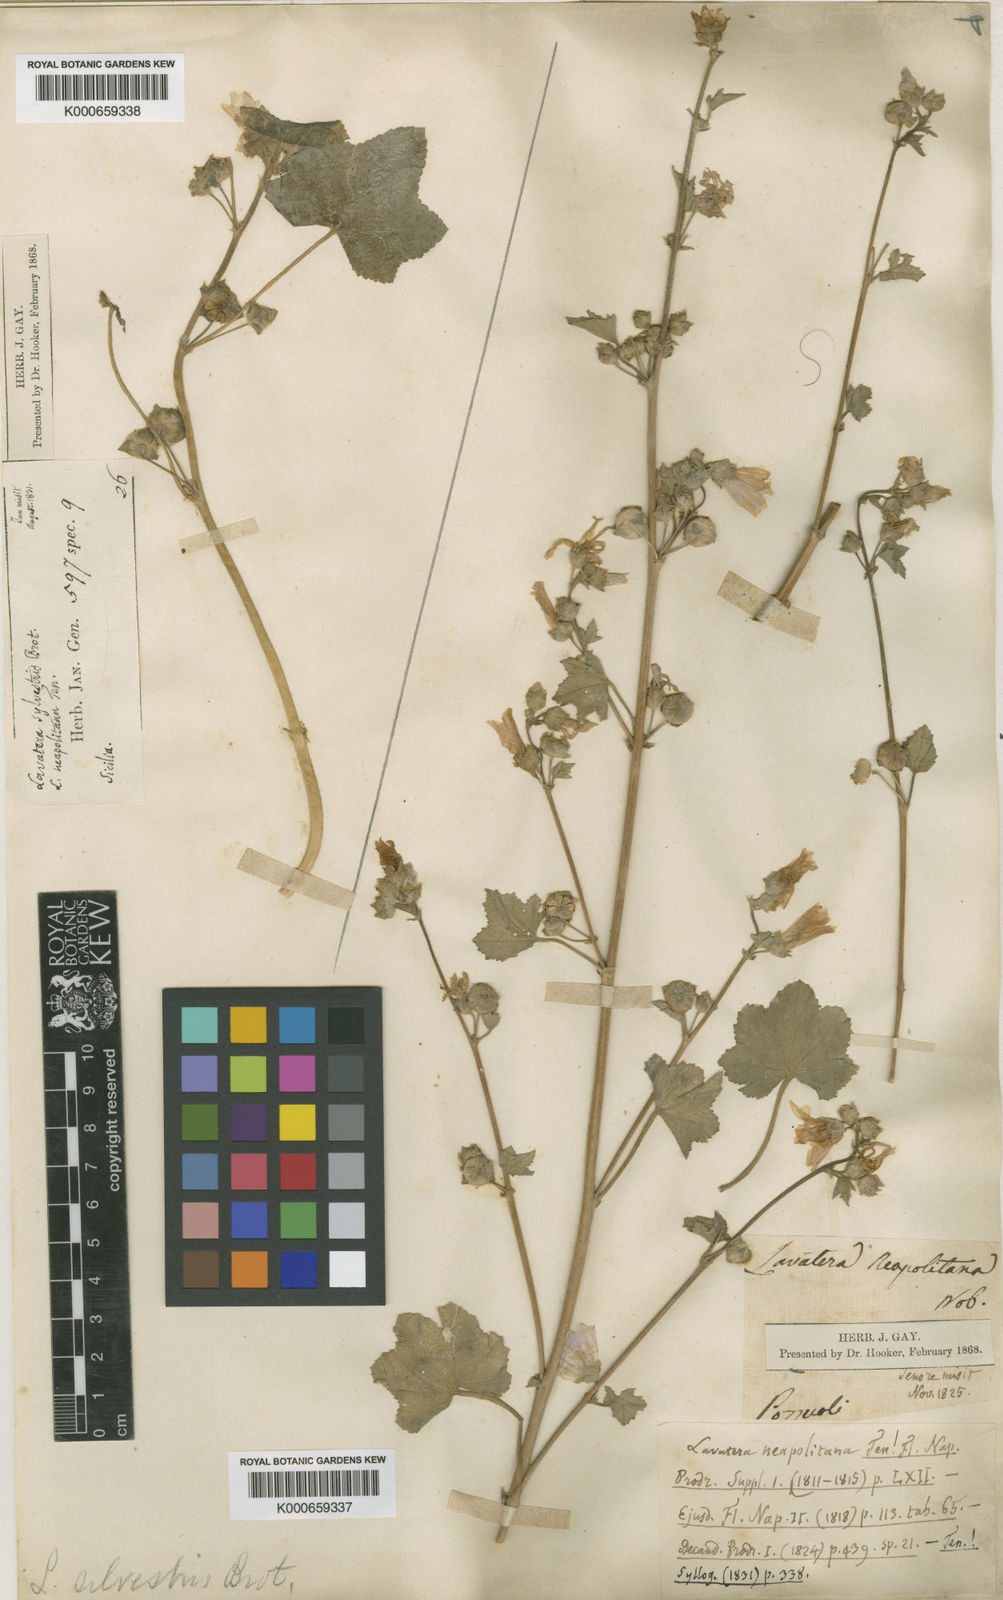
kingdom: Plantae
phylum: Tracheophyta
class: Magnoliopsida
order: Malvales
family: Malvaceae
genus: Malva
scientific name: Malva multiflora
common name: Cheeseweed
